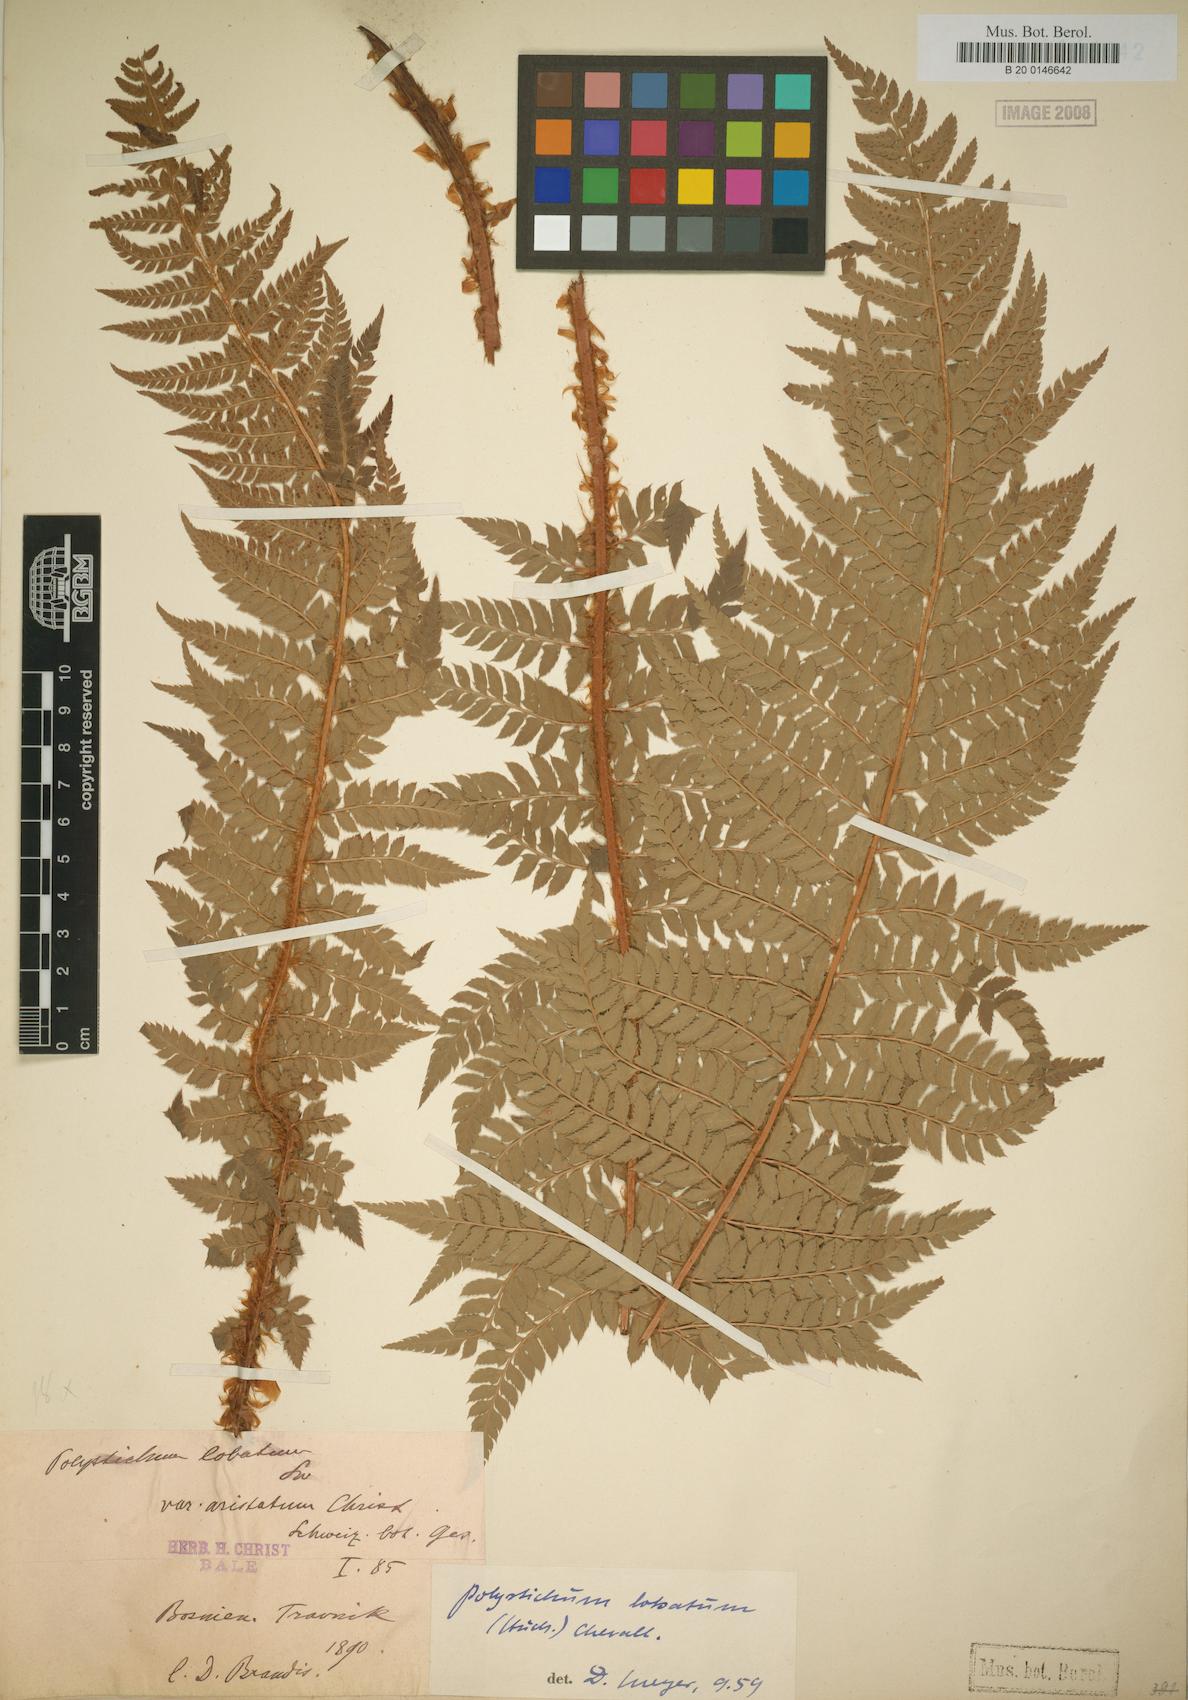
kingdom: Plantae
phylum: Tracheophyta
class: Polypodiopsida
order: Polypodiales
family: Dryopteridaceae
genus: Polystichum
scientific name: Polystichum aculeatum
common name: Hard shield-fern
